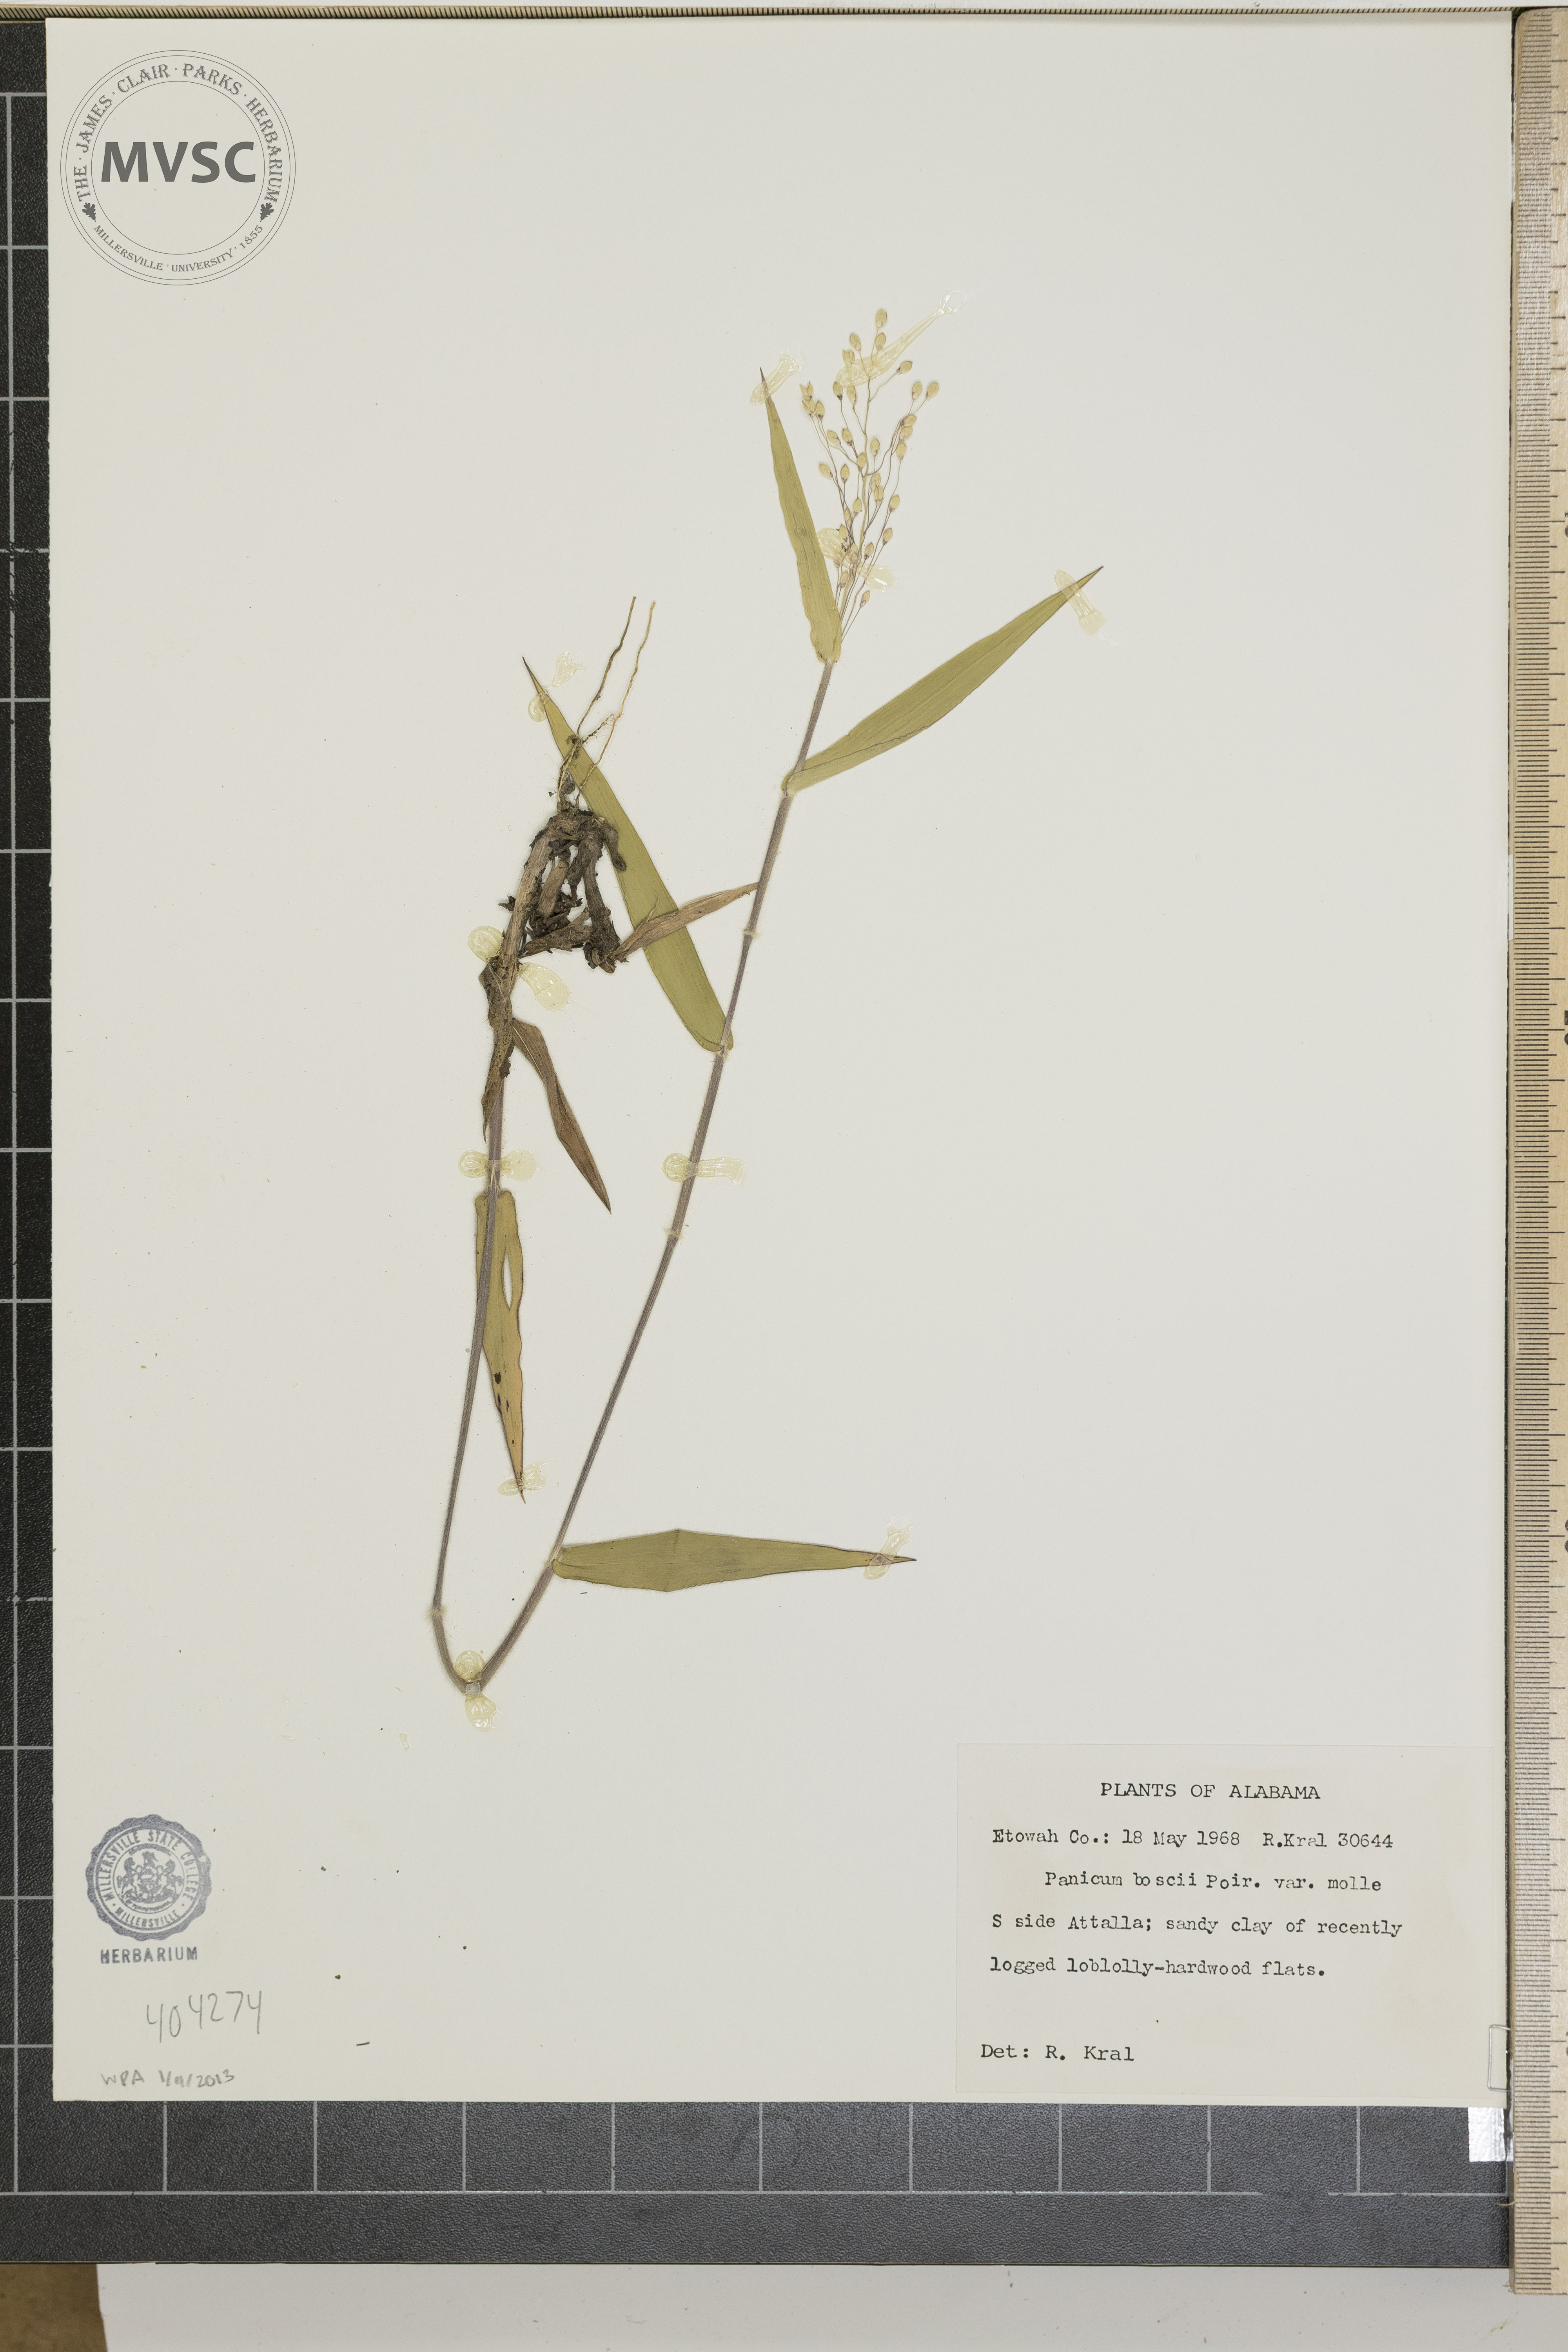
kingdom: Plantae
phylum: Tracheophyta
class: Liliopsida
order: Poales
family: Poaceae
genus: Dichanthelium
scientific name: Dichanthelium boscii
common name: Bosc's panic grass
